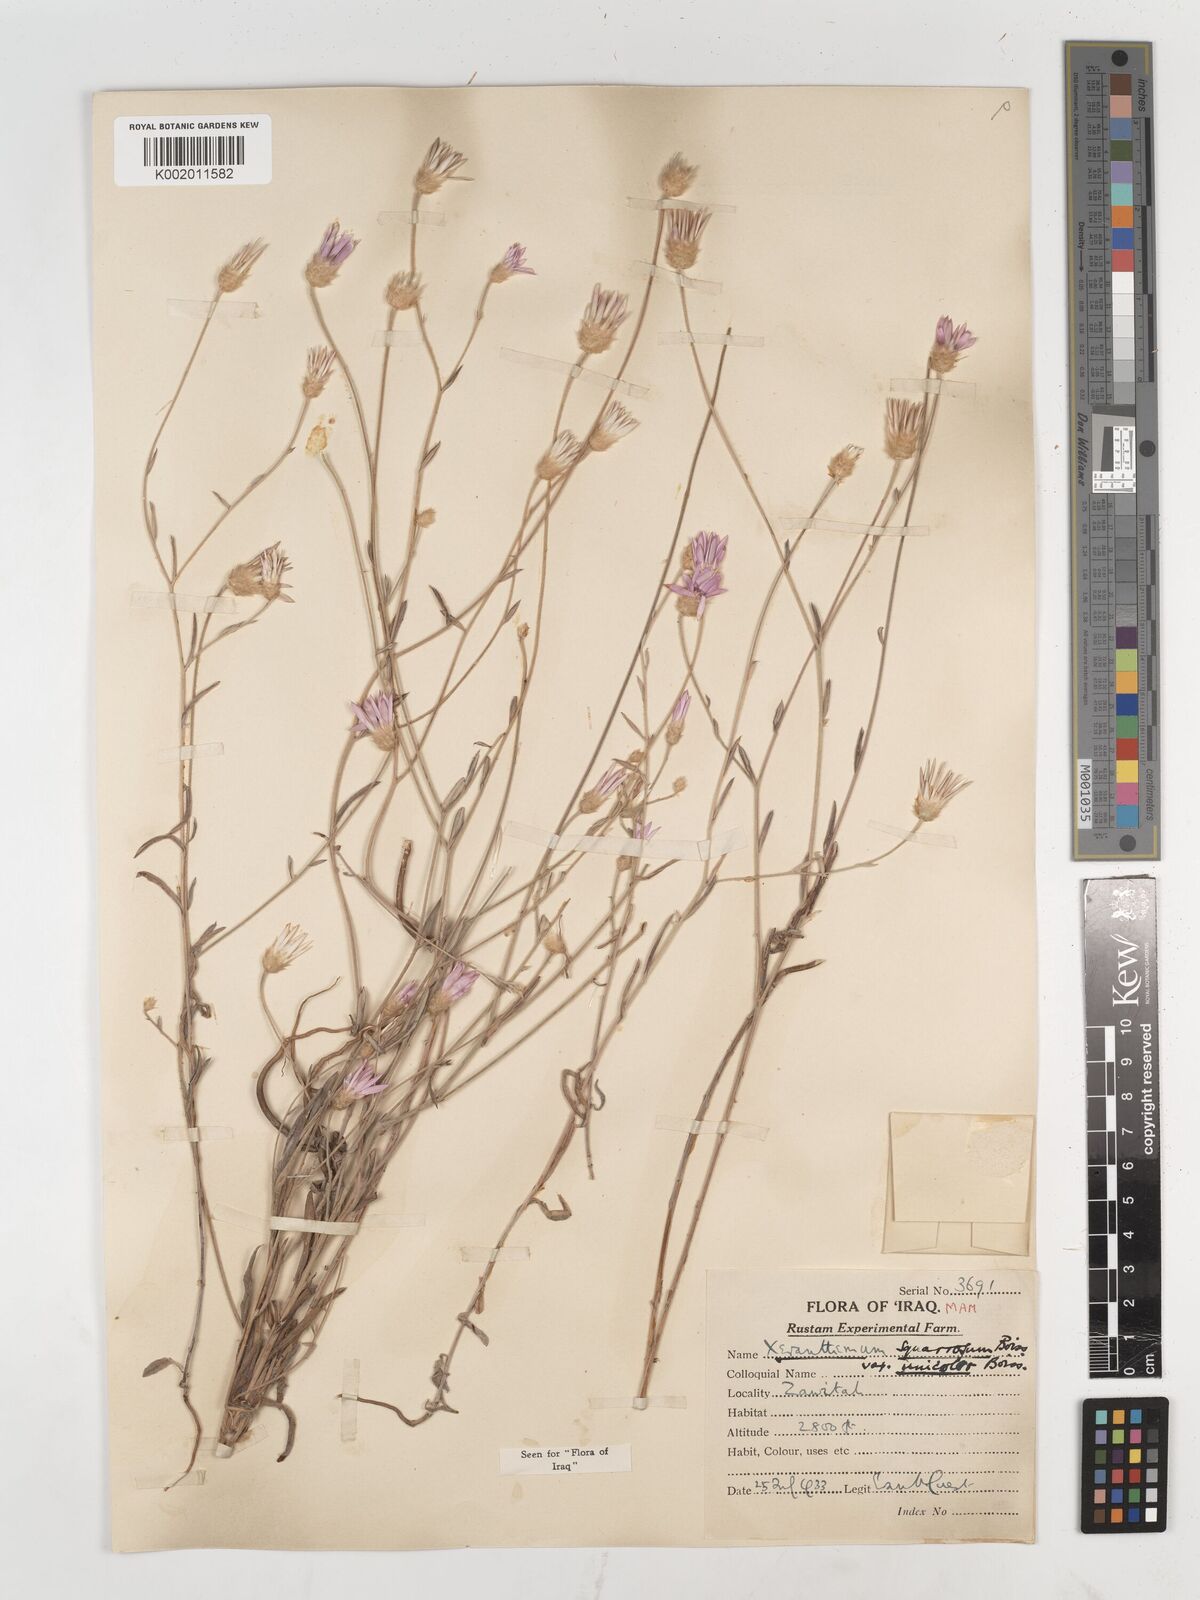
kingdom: Plantae
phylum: Tracheophyta
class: Magnoliopsida
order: Asterales
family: Asteraceae
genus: Xeranthemum
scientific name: Xeranthemum annuum
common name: Immortelle
